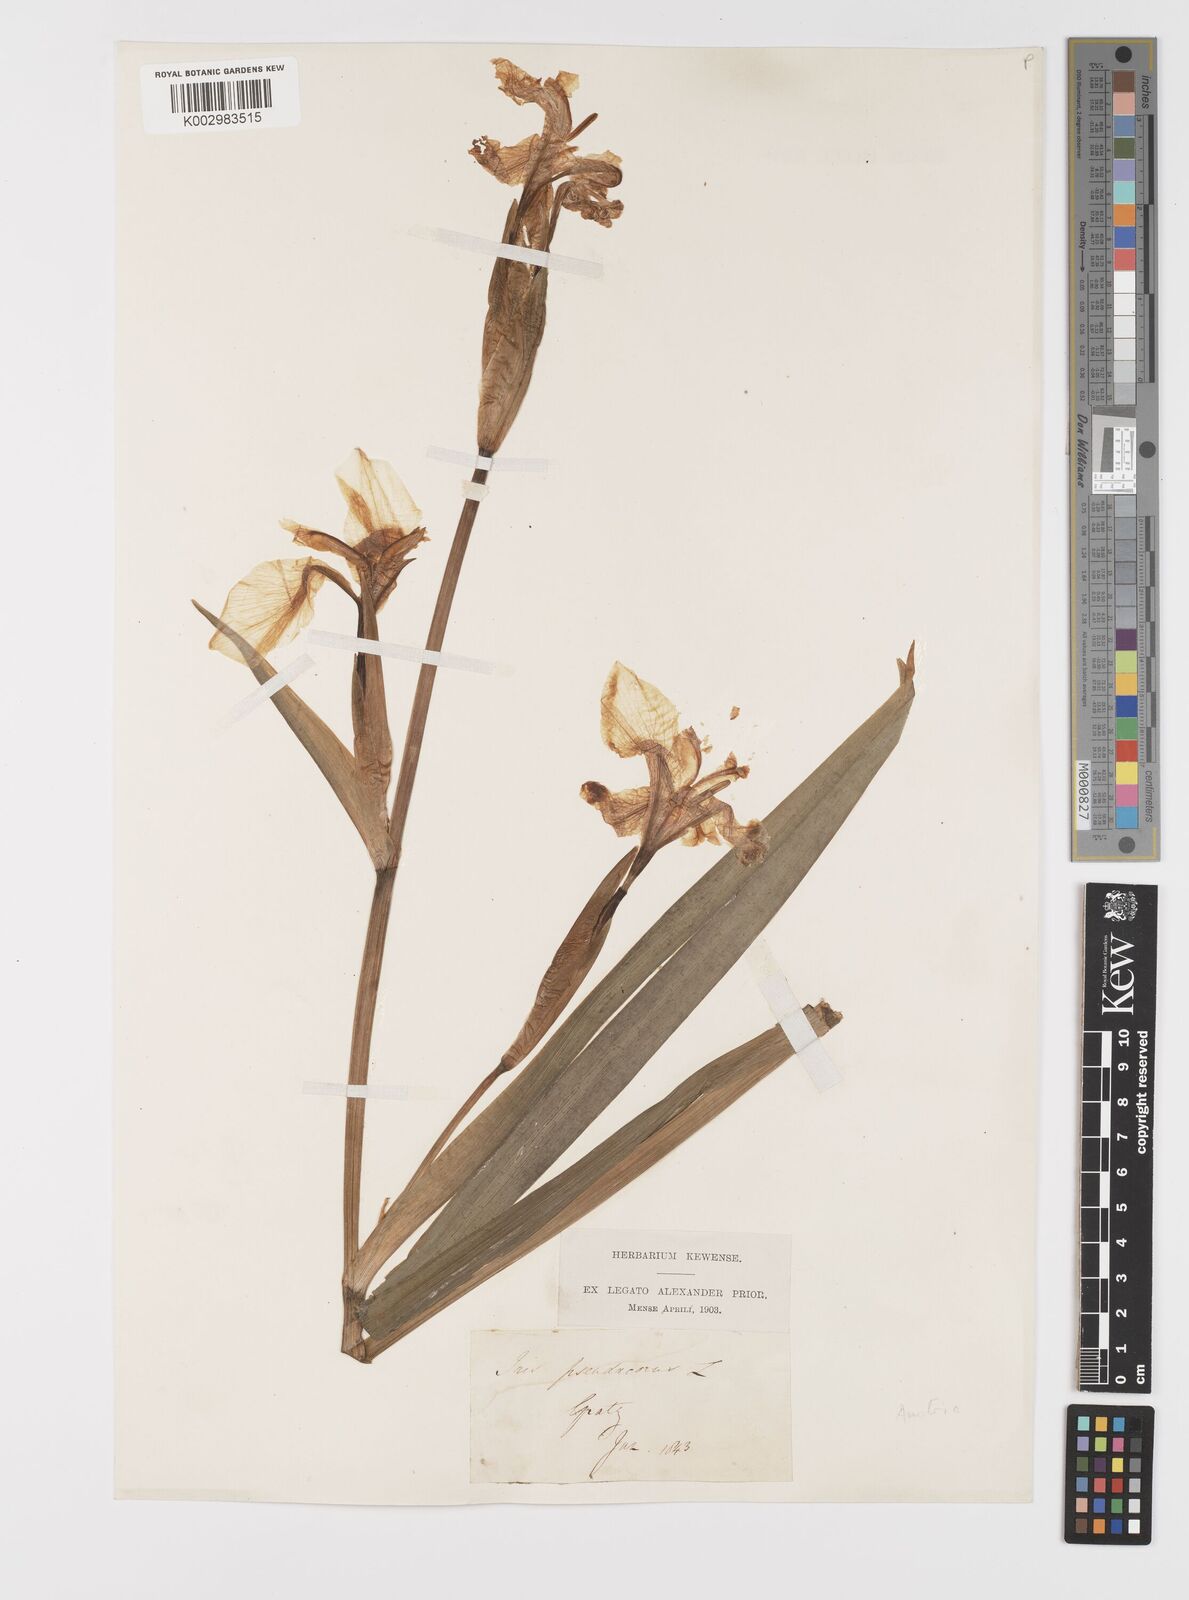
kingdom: Plantae
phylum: Tracheophyta
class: Liliopsida
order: Asparagales
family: Iridaceae
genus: Iris
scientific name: Iris pseudacorus
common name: Yellow flag
